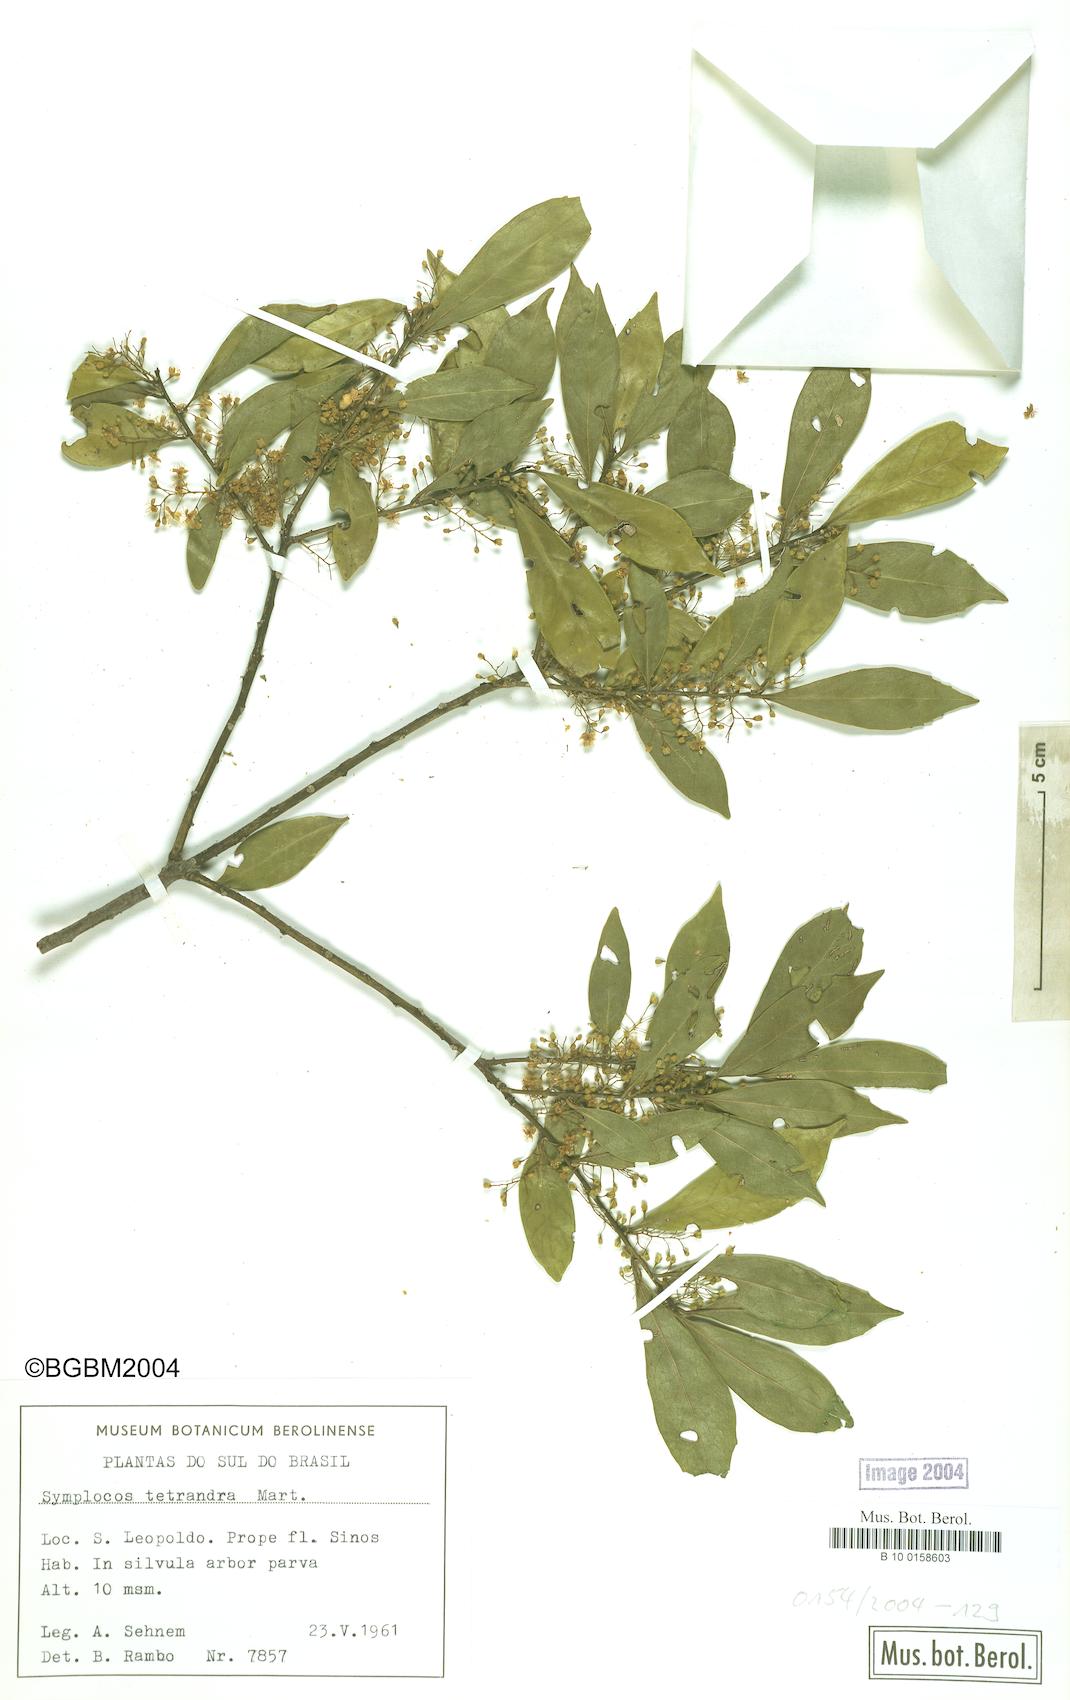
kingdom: Plantae
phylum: Tracheophyta
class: Magnoliopsida
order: Ericales
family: Symplocaceae
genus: Symplocos
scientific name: Symplocos tetrandra
